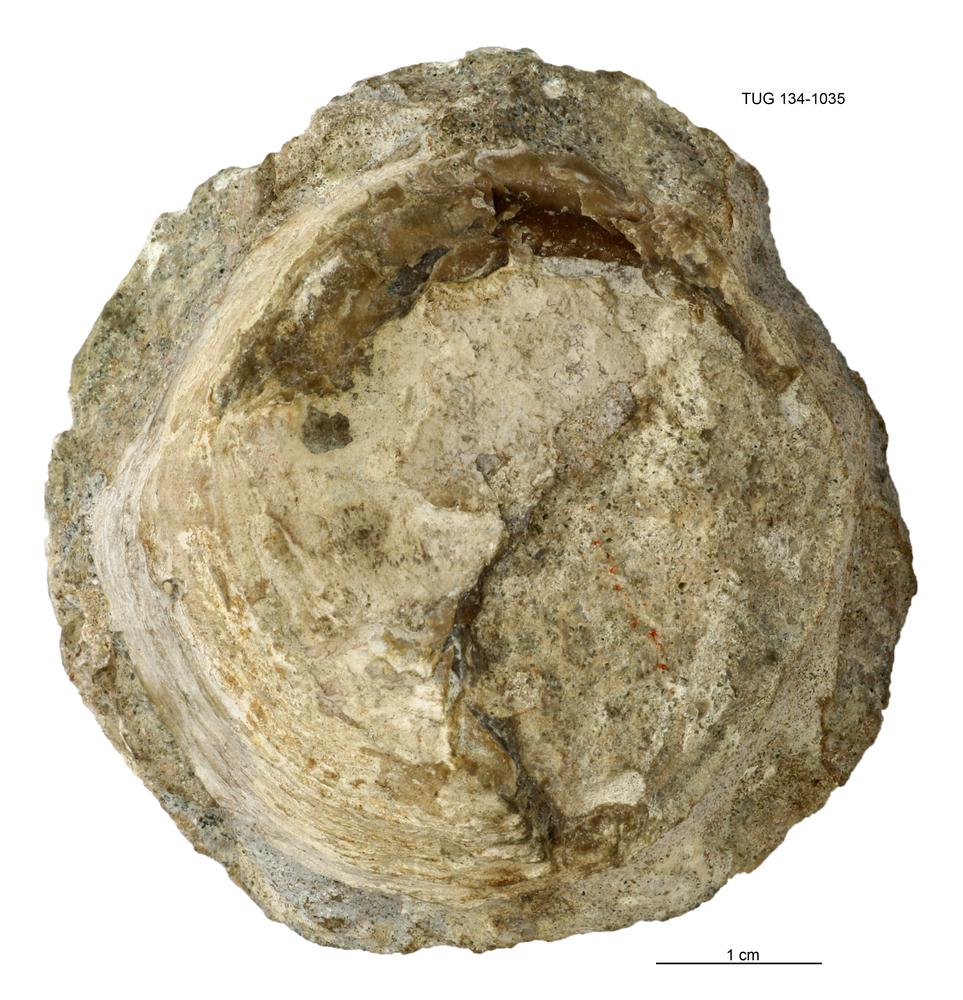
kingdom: Animalia
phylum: Brachiopoda
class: Lingulata
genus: Pseudometoptoma
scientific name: Pseudometoptoma
